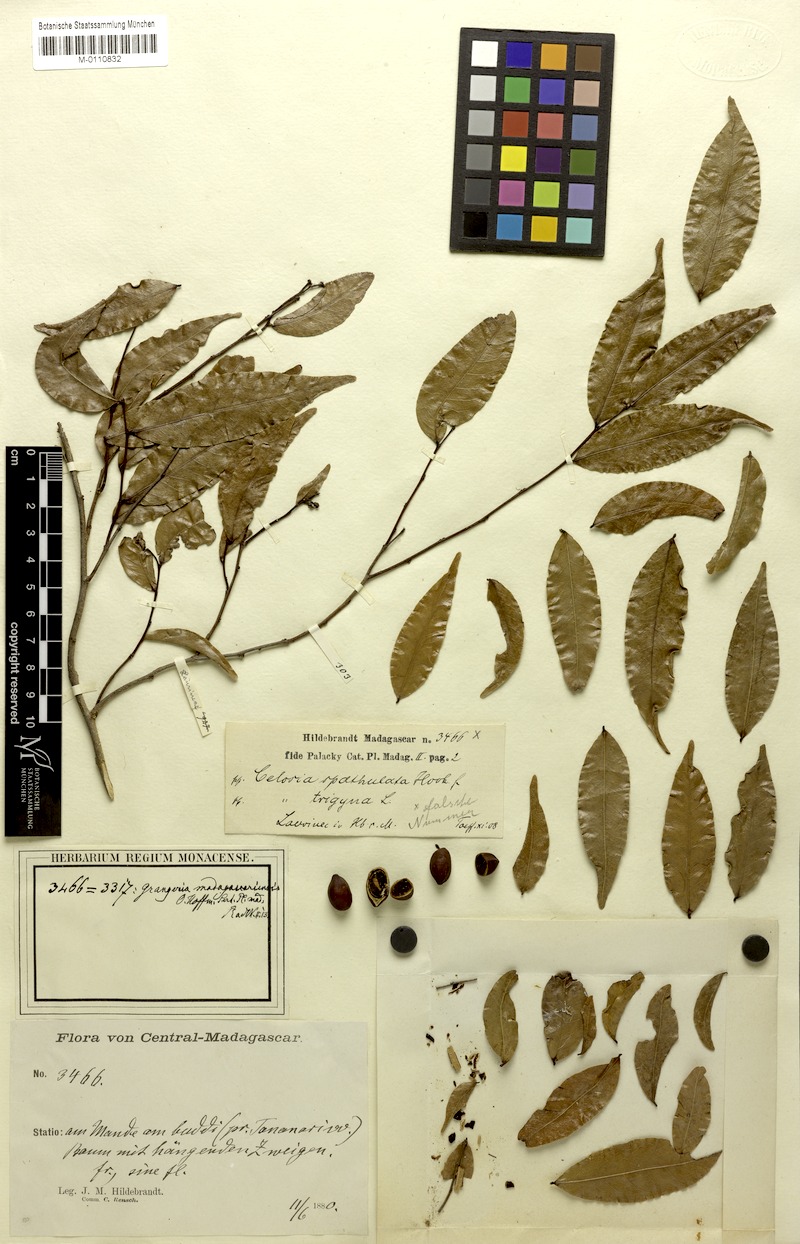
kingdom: Plantae
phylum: Tracheophyta
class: Magnoliopsida
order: Malpighiales
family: Chrysobalanaceae
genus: Grangeria
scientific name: Grangeria porosa
